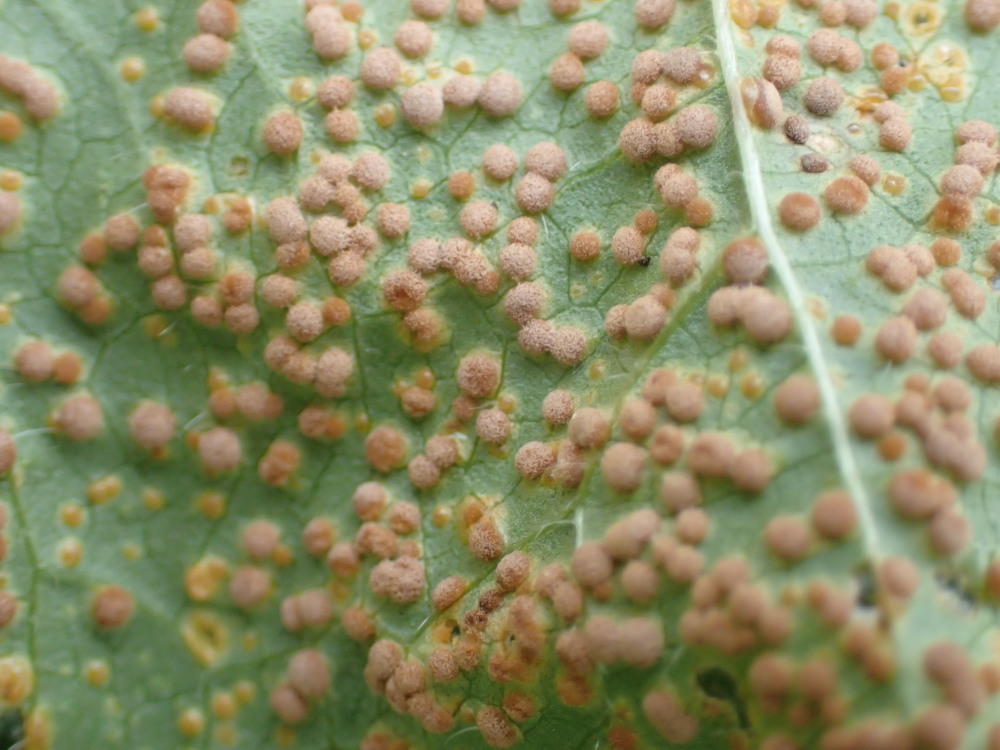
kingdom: Fungi
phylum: Basidiomycota
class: Pucciniomycetes
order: Pucciniales
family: Pucciniaceae
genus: Puccinia
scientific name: Puccinia malvacearum
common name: stokrose-tvecellerust
